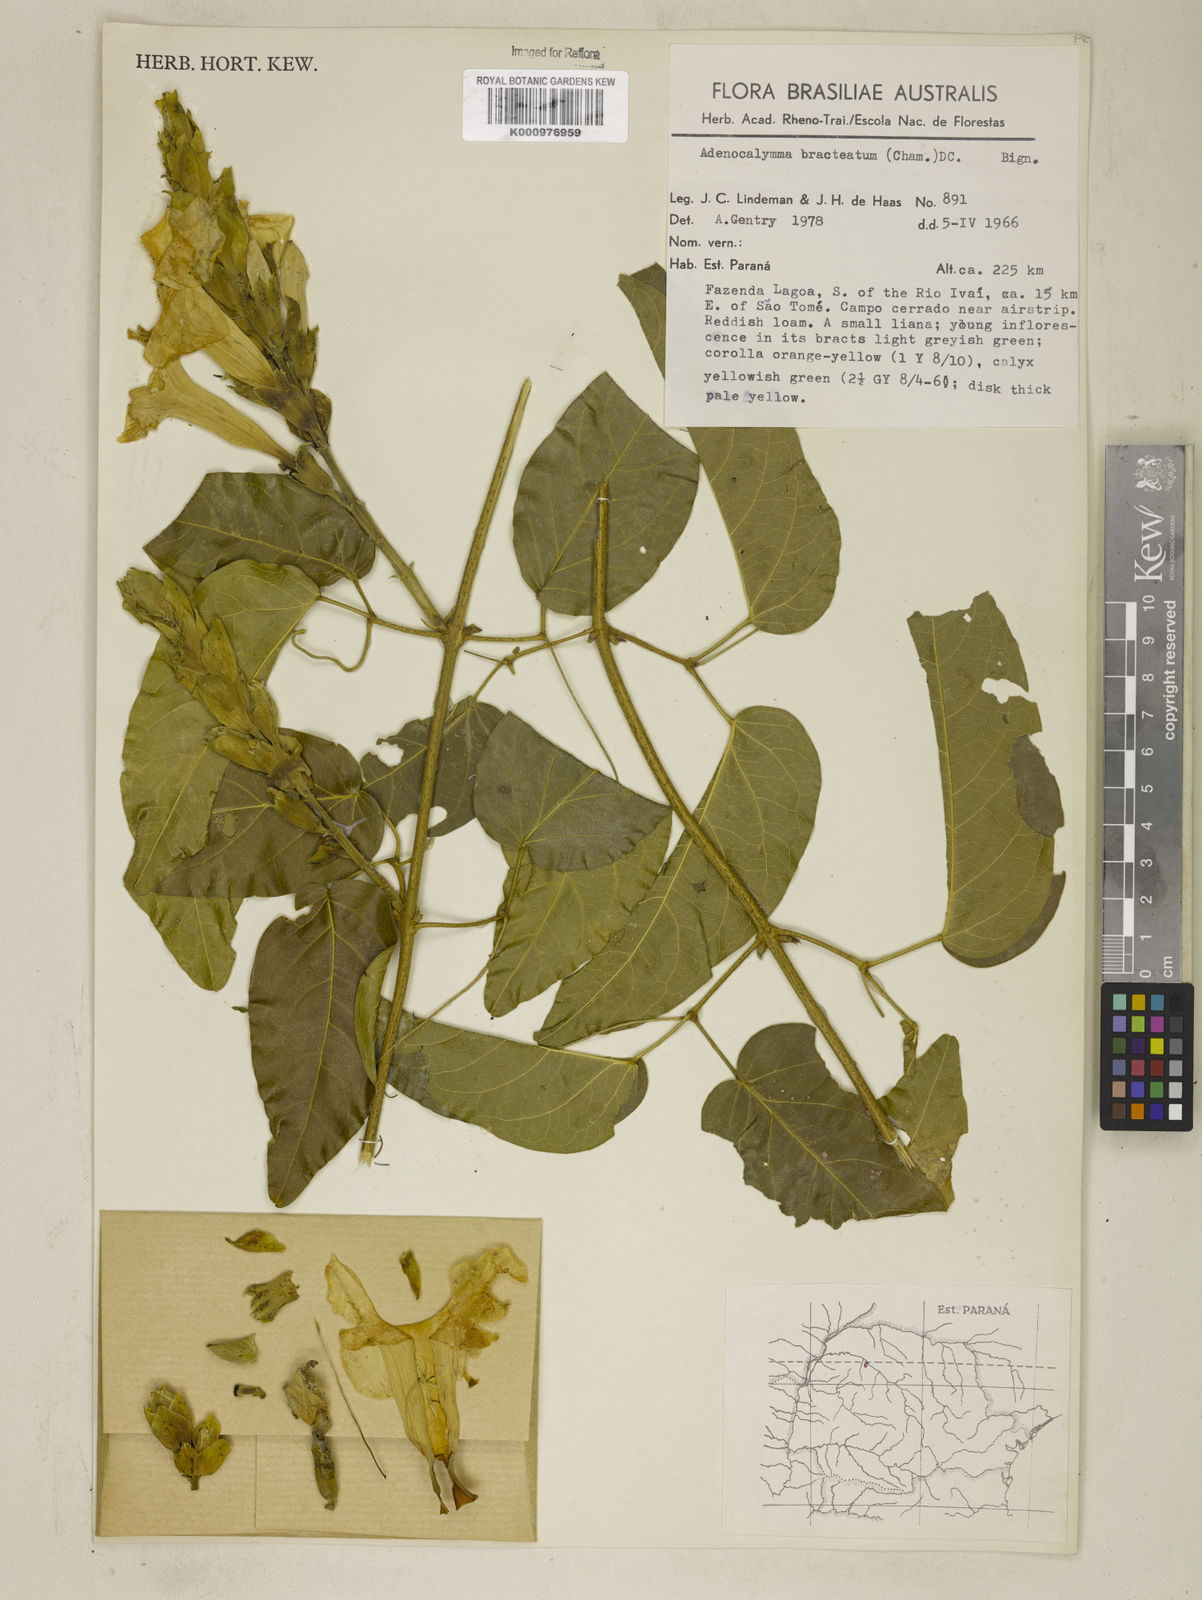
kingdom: Plantae
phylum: Tracheophyta
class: Magnoliopsida
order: Lamiales
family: Bignoniaceae
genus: Adenocalymma
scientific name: Adenocalymma bracteatum
